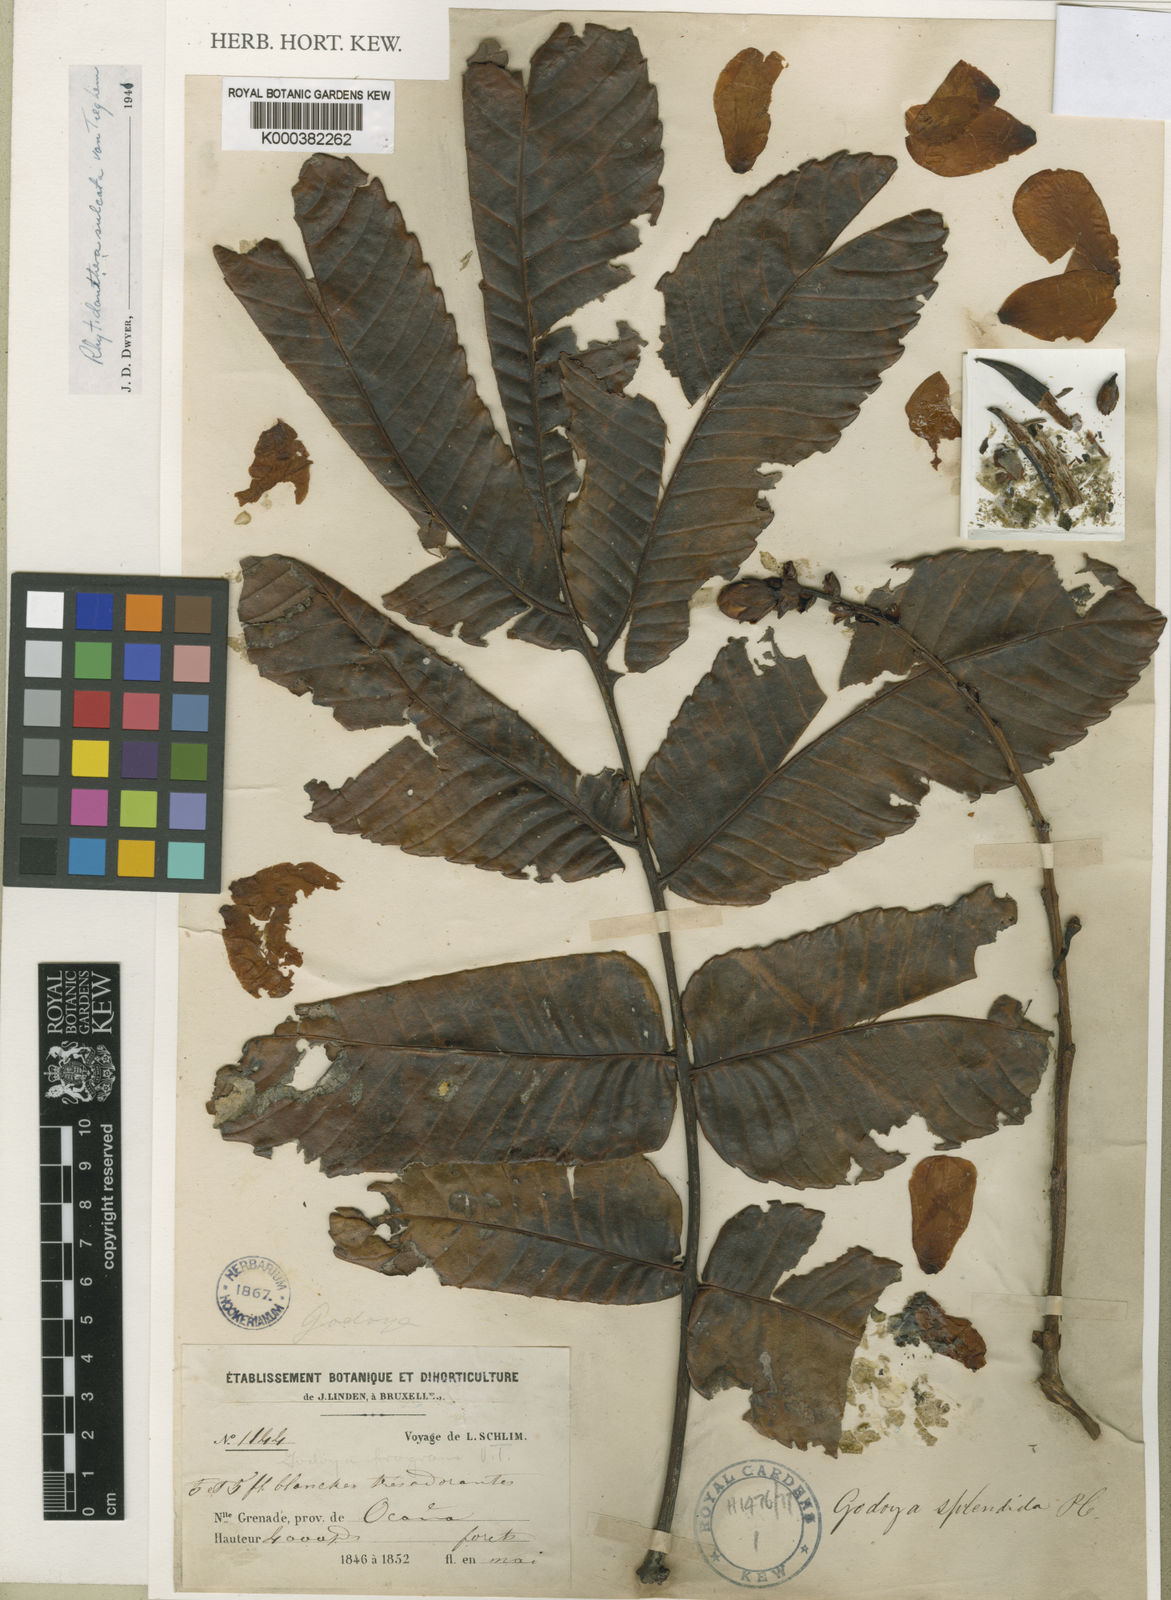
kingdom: Plantae
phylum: Tracheophyta
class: Magnoliopsida
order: Malpighiales
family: Ochnaceae
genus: Rhytidanthera
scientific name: Rhytidanthera splendida
